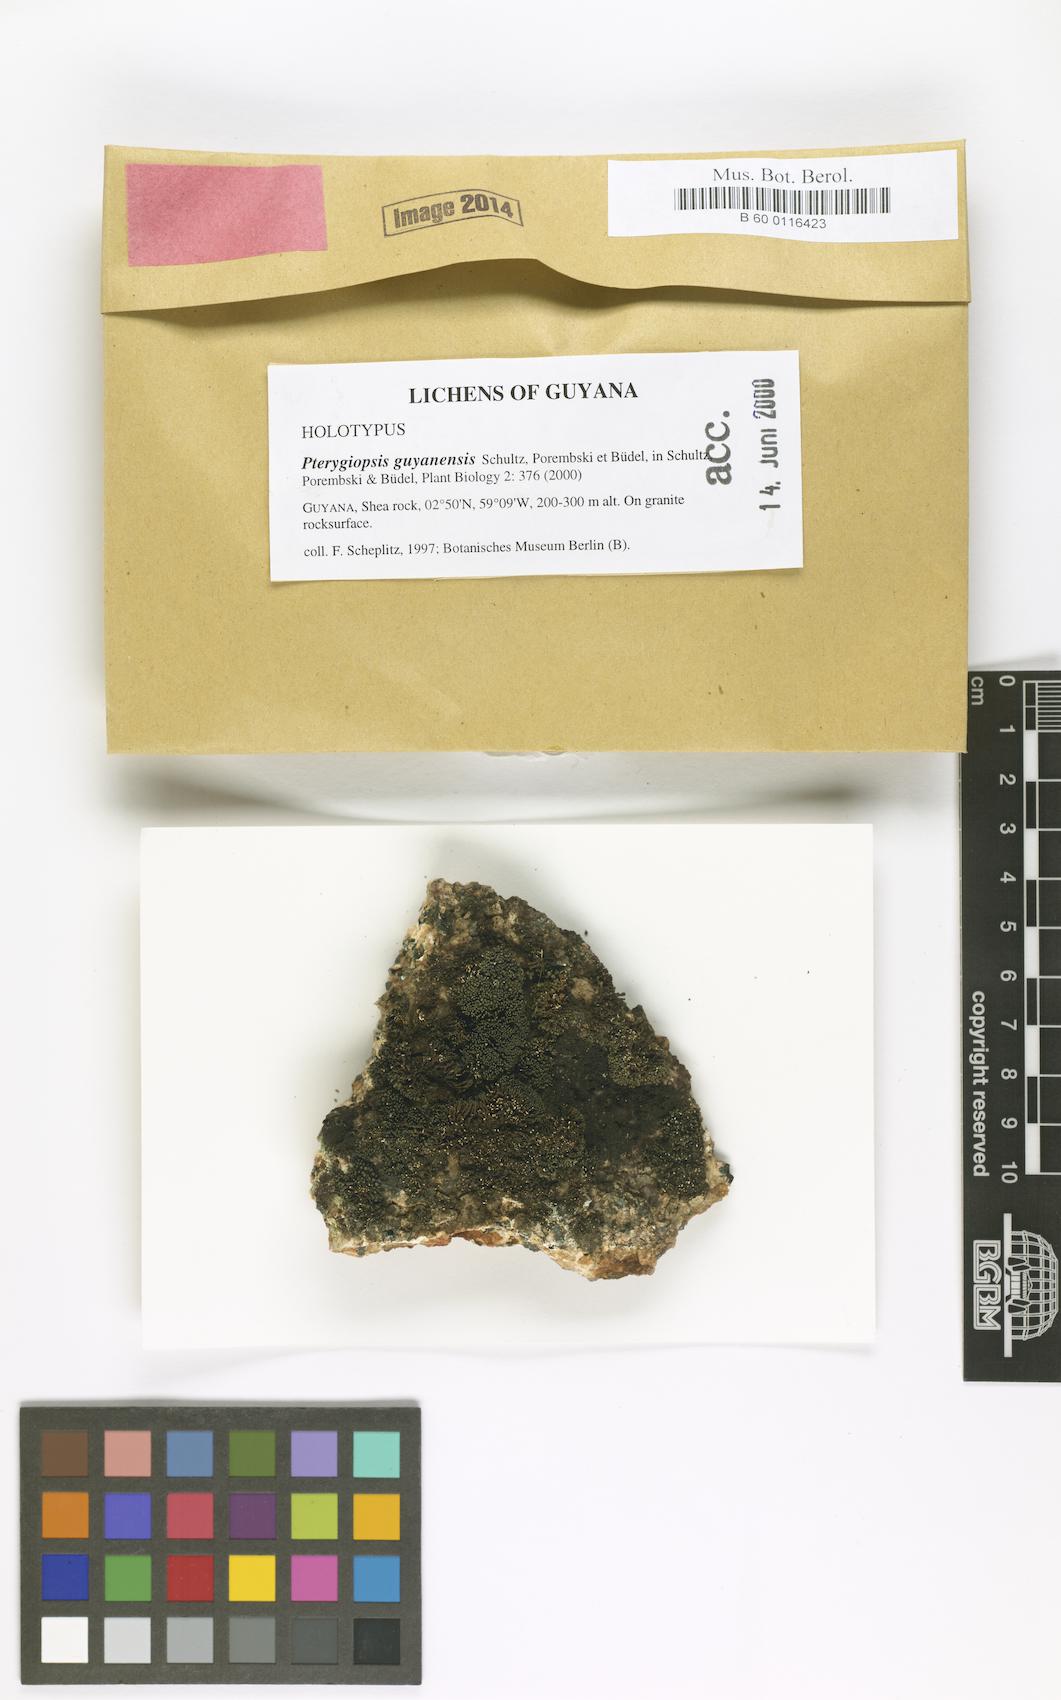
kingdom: Fungi
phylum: Ascomycota
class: Lichinomycetes
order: Lichinales
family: Lichinaceae
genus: Pterygiopsis
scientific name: Pterygiopsis guyanensis
